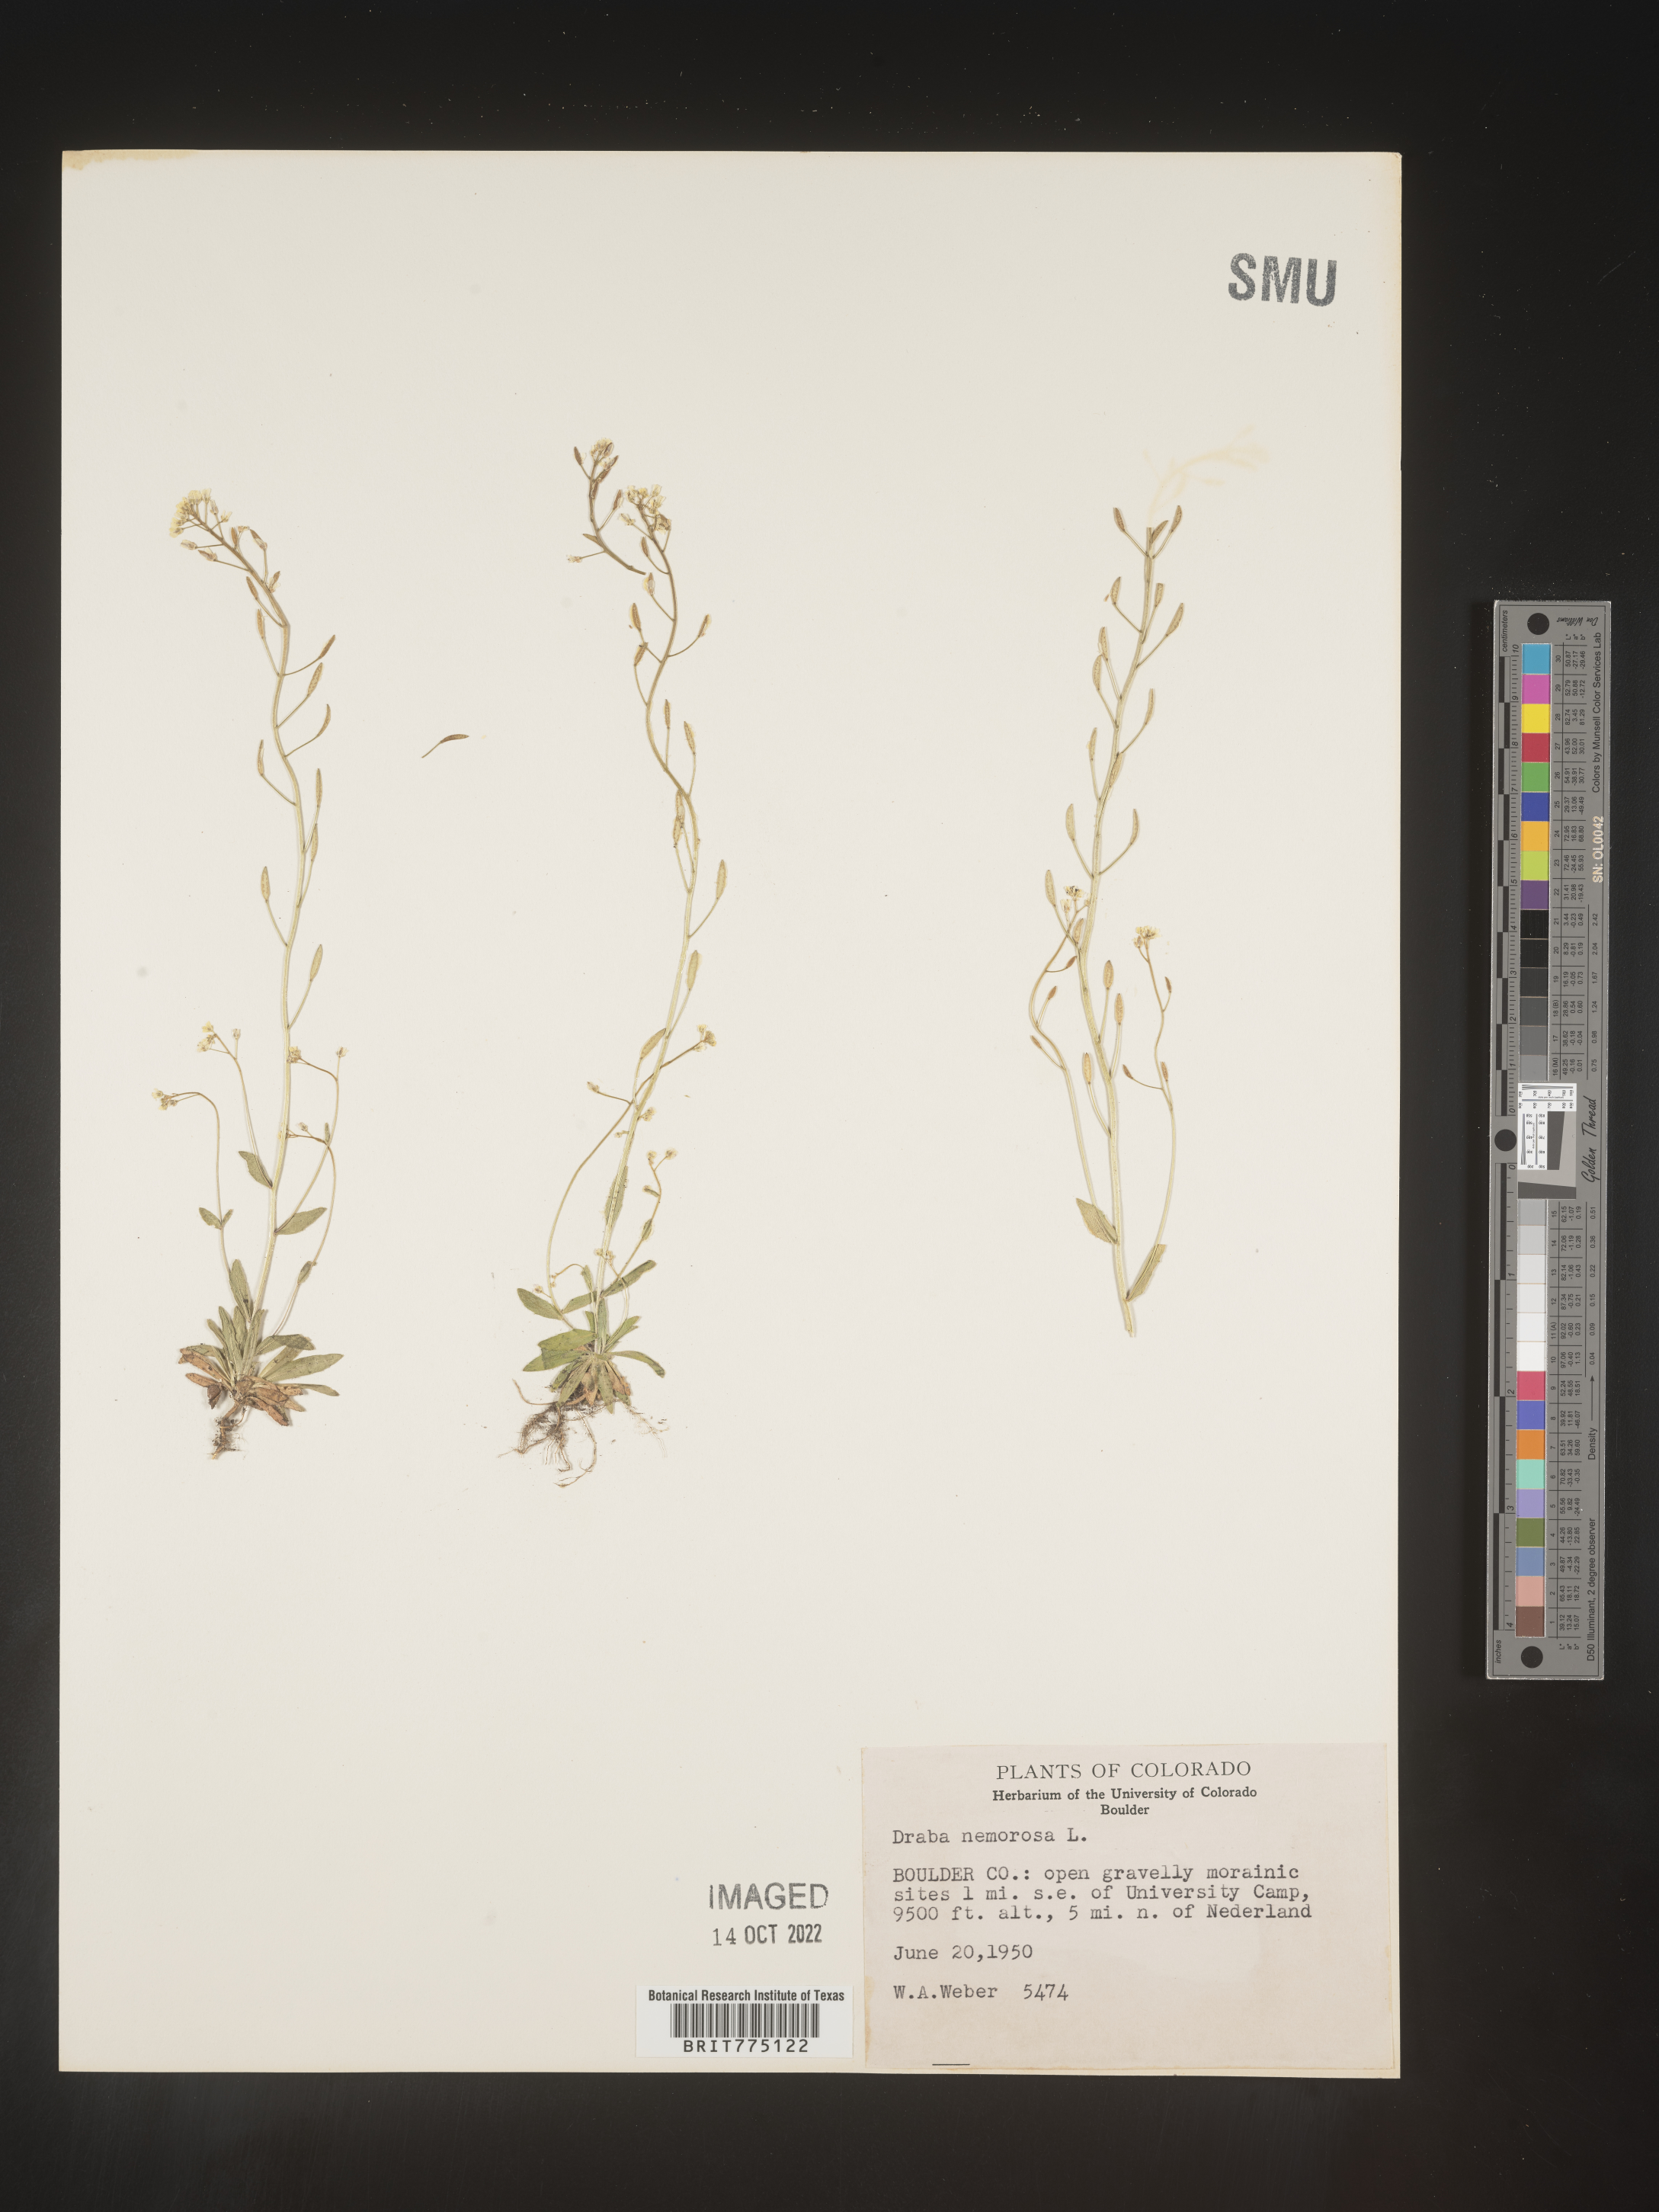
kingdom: Plantae
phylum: Tracheophyta
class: Magnoliopsida
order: Brassicales
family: Brassicaceae
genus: Draba
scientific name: Draba
